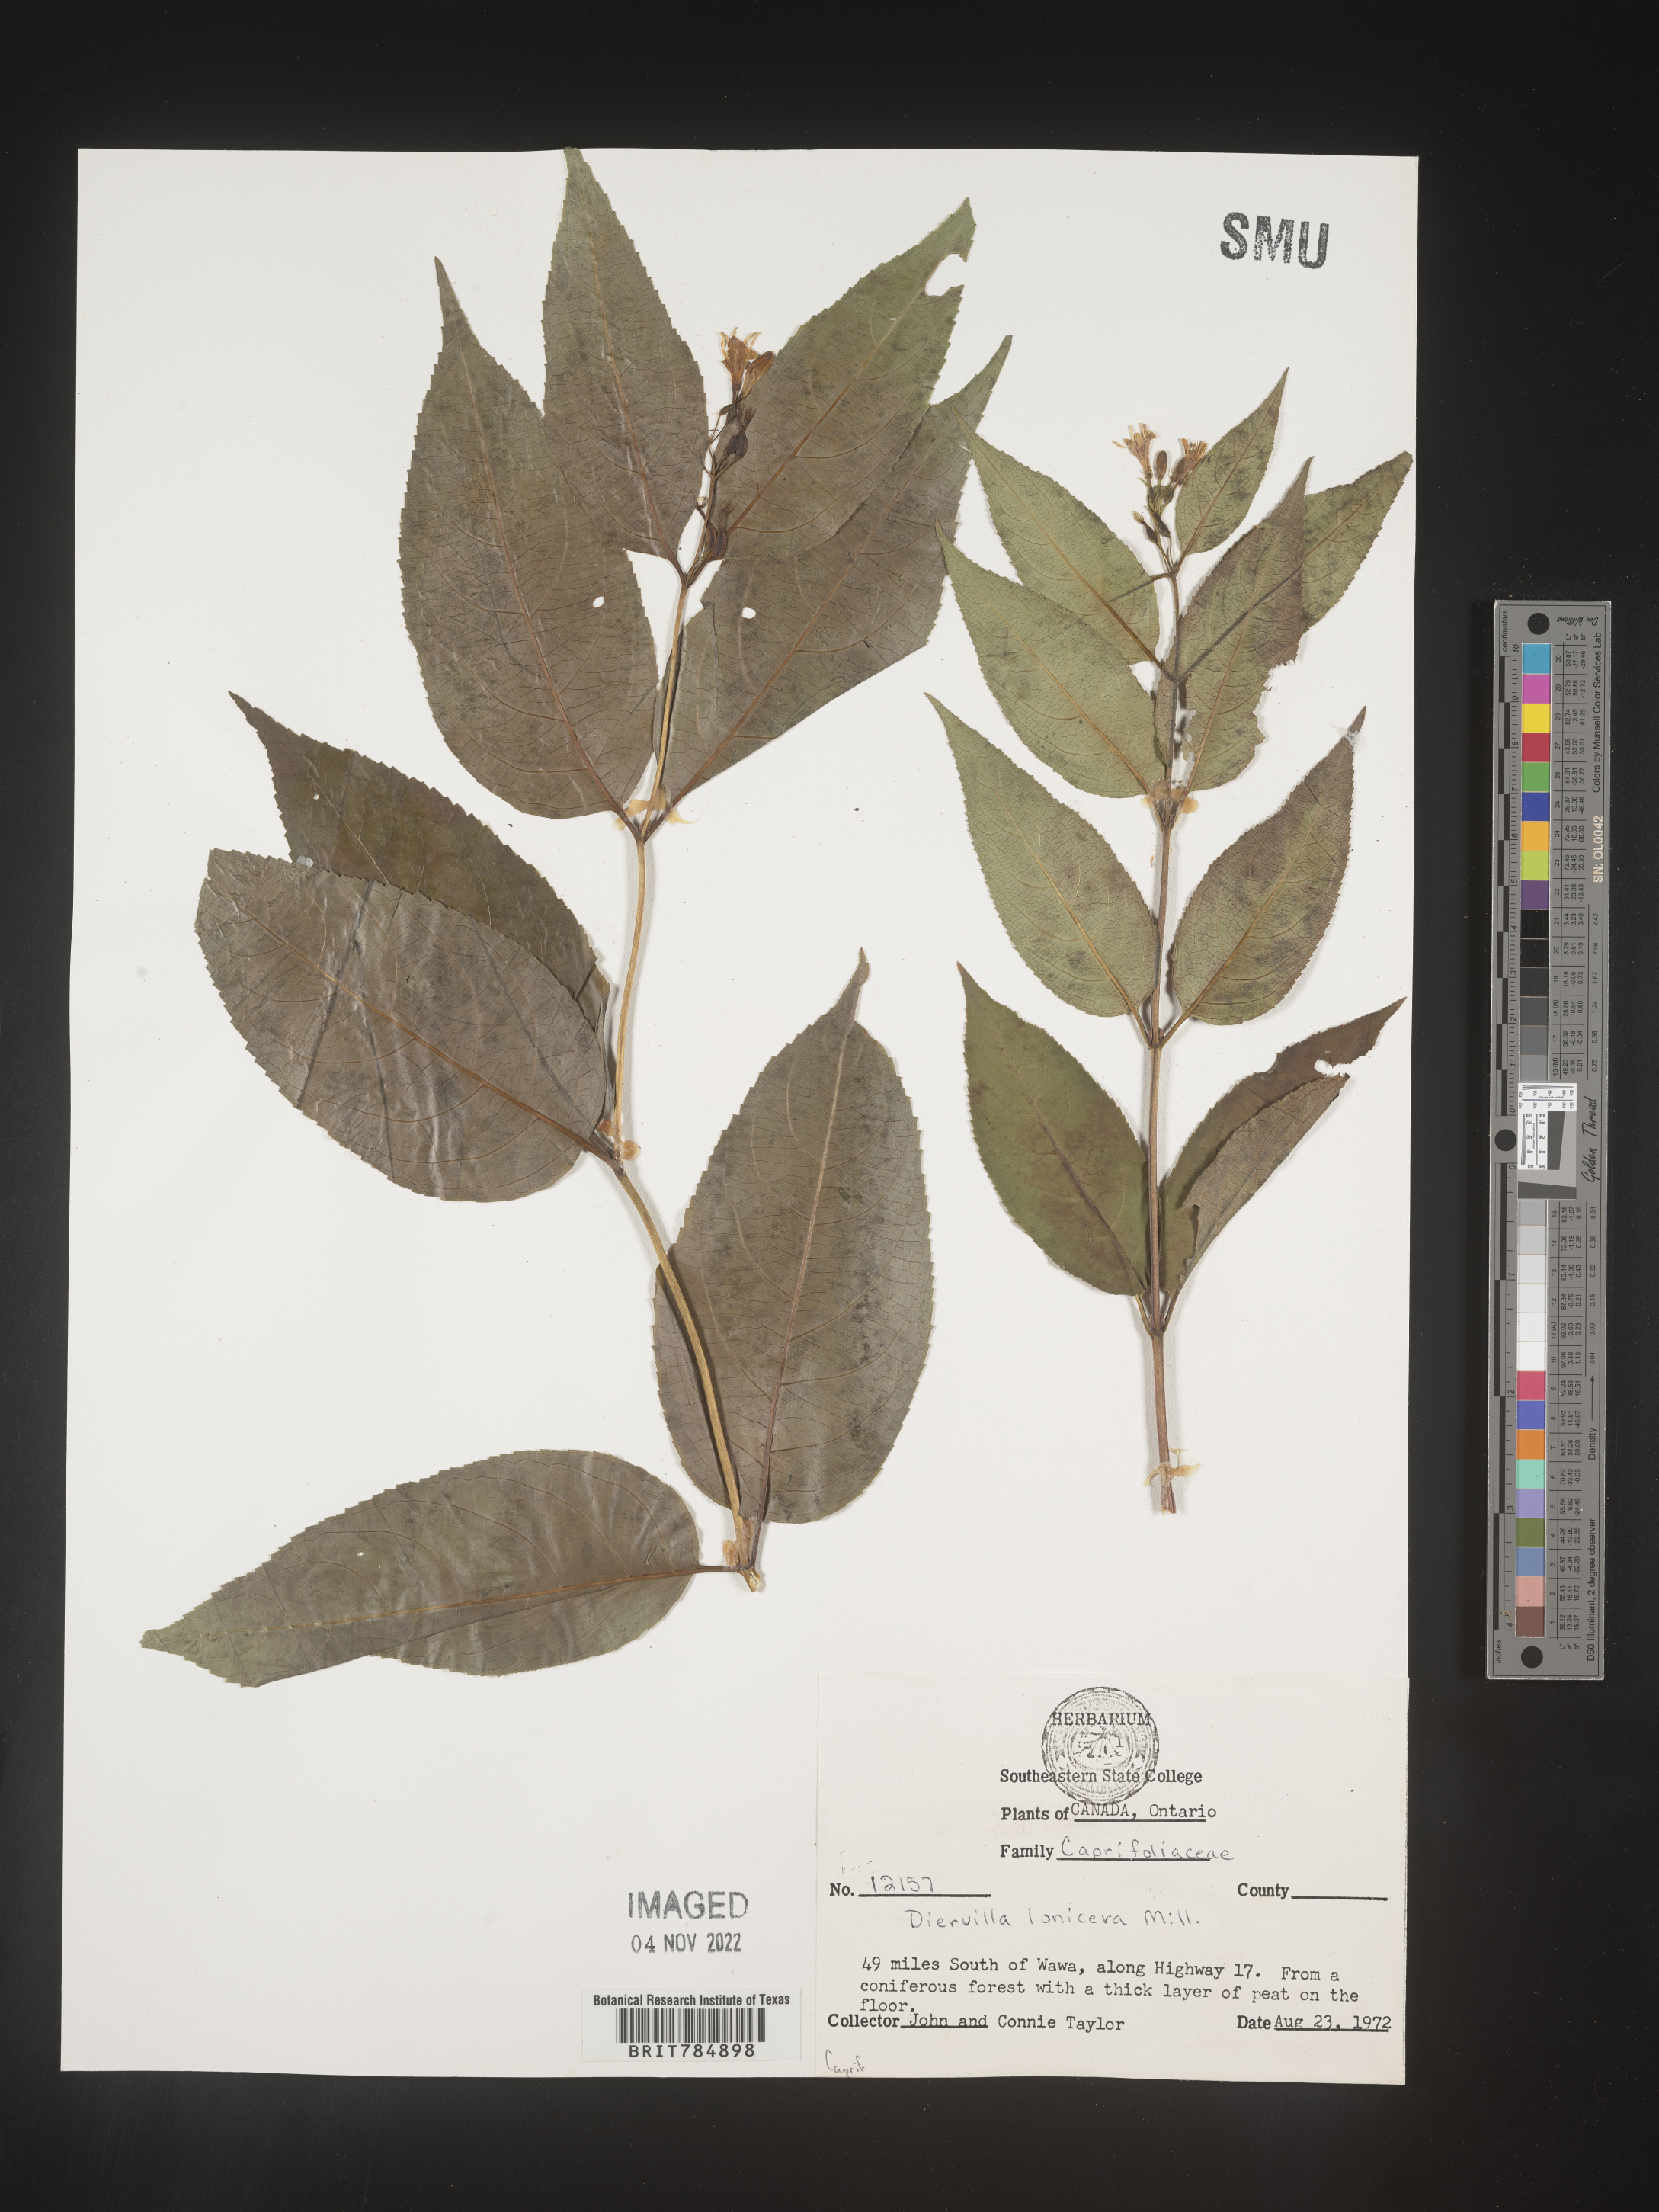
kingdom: Plantae
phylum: Tracheophyta
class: Magnoliopsida
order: Dipsacales
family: Caprifoliaceae
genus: Diervilla
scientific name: Diervilla lonicera
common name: Bush-honeysuckle
